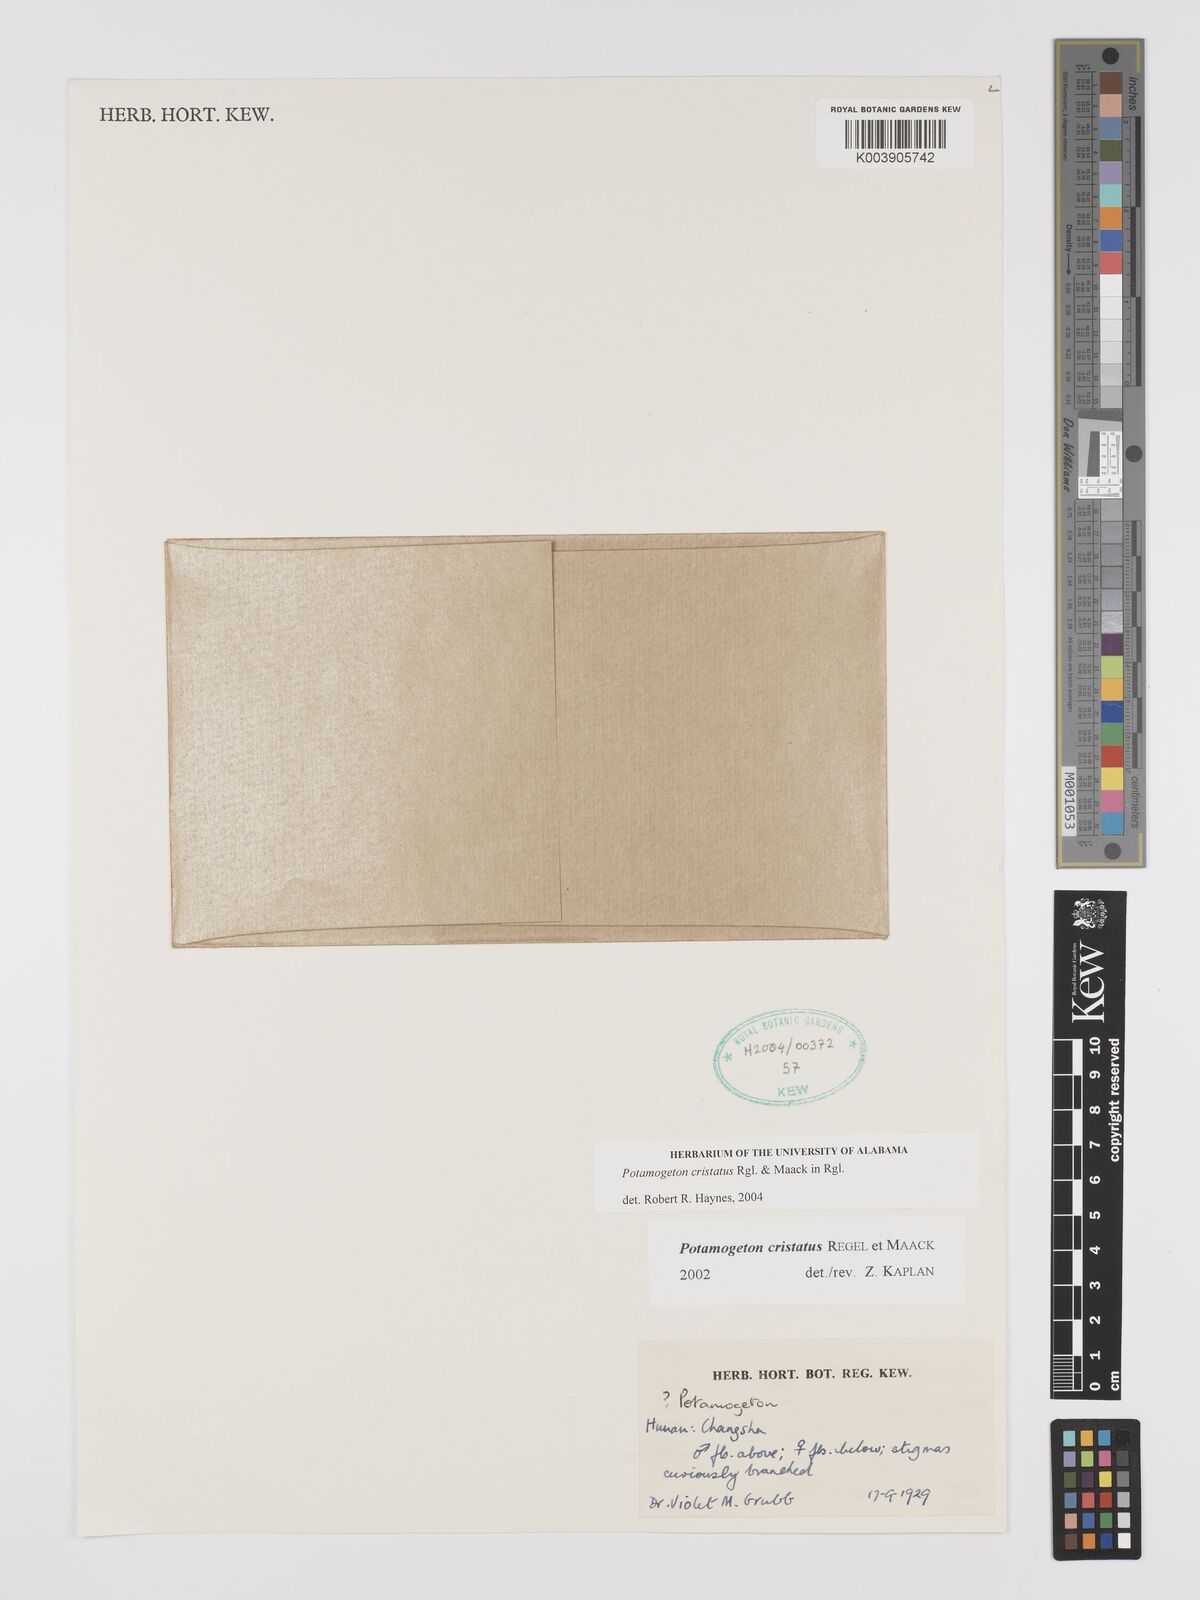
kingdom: Plantae
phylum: Tracheophyta
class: Liliopsida
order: Alismatales
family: Potamogetonaceae
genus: Potamogeton
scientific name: Potamogeton cristatus
